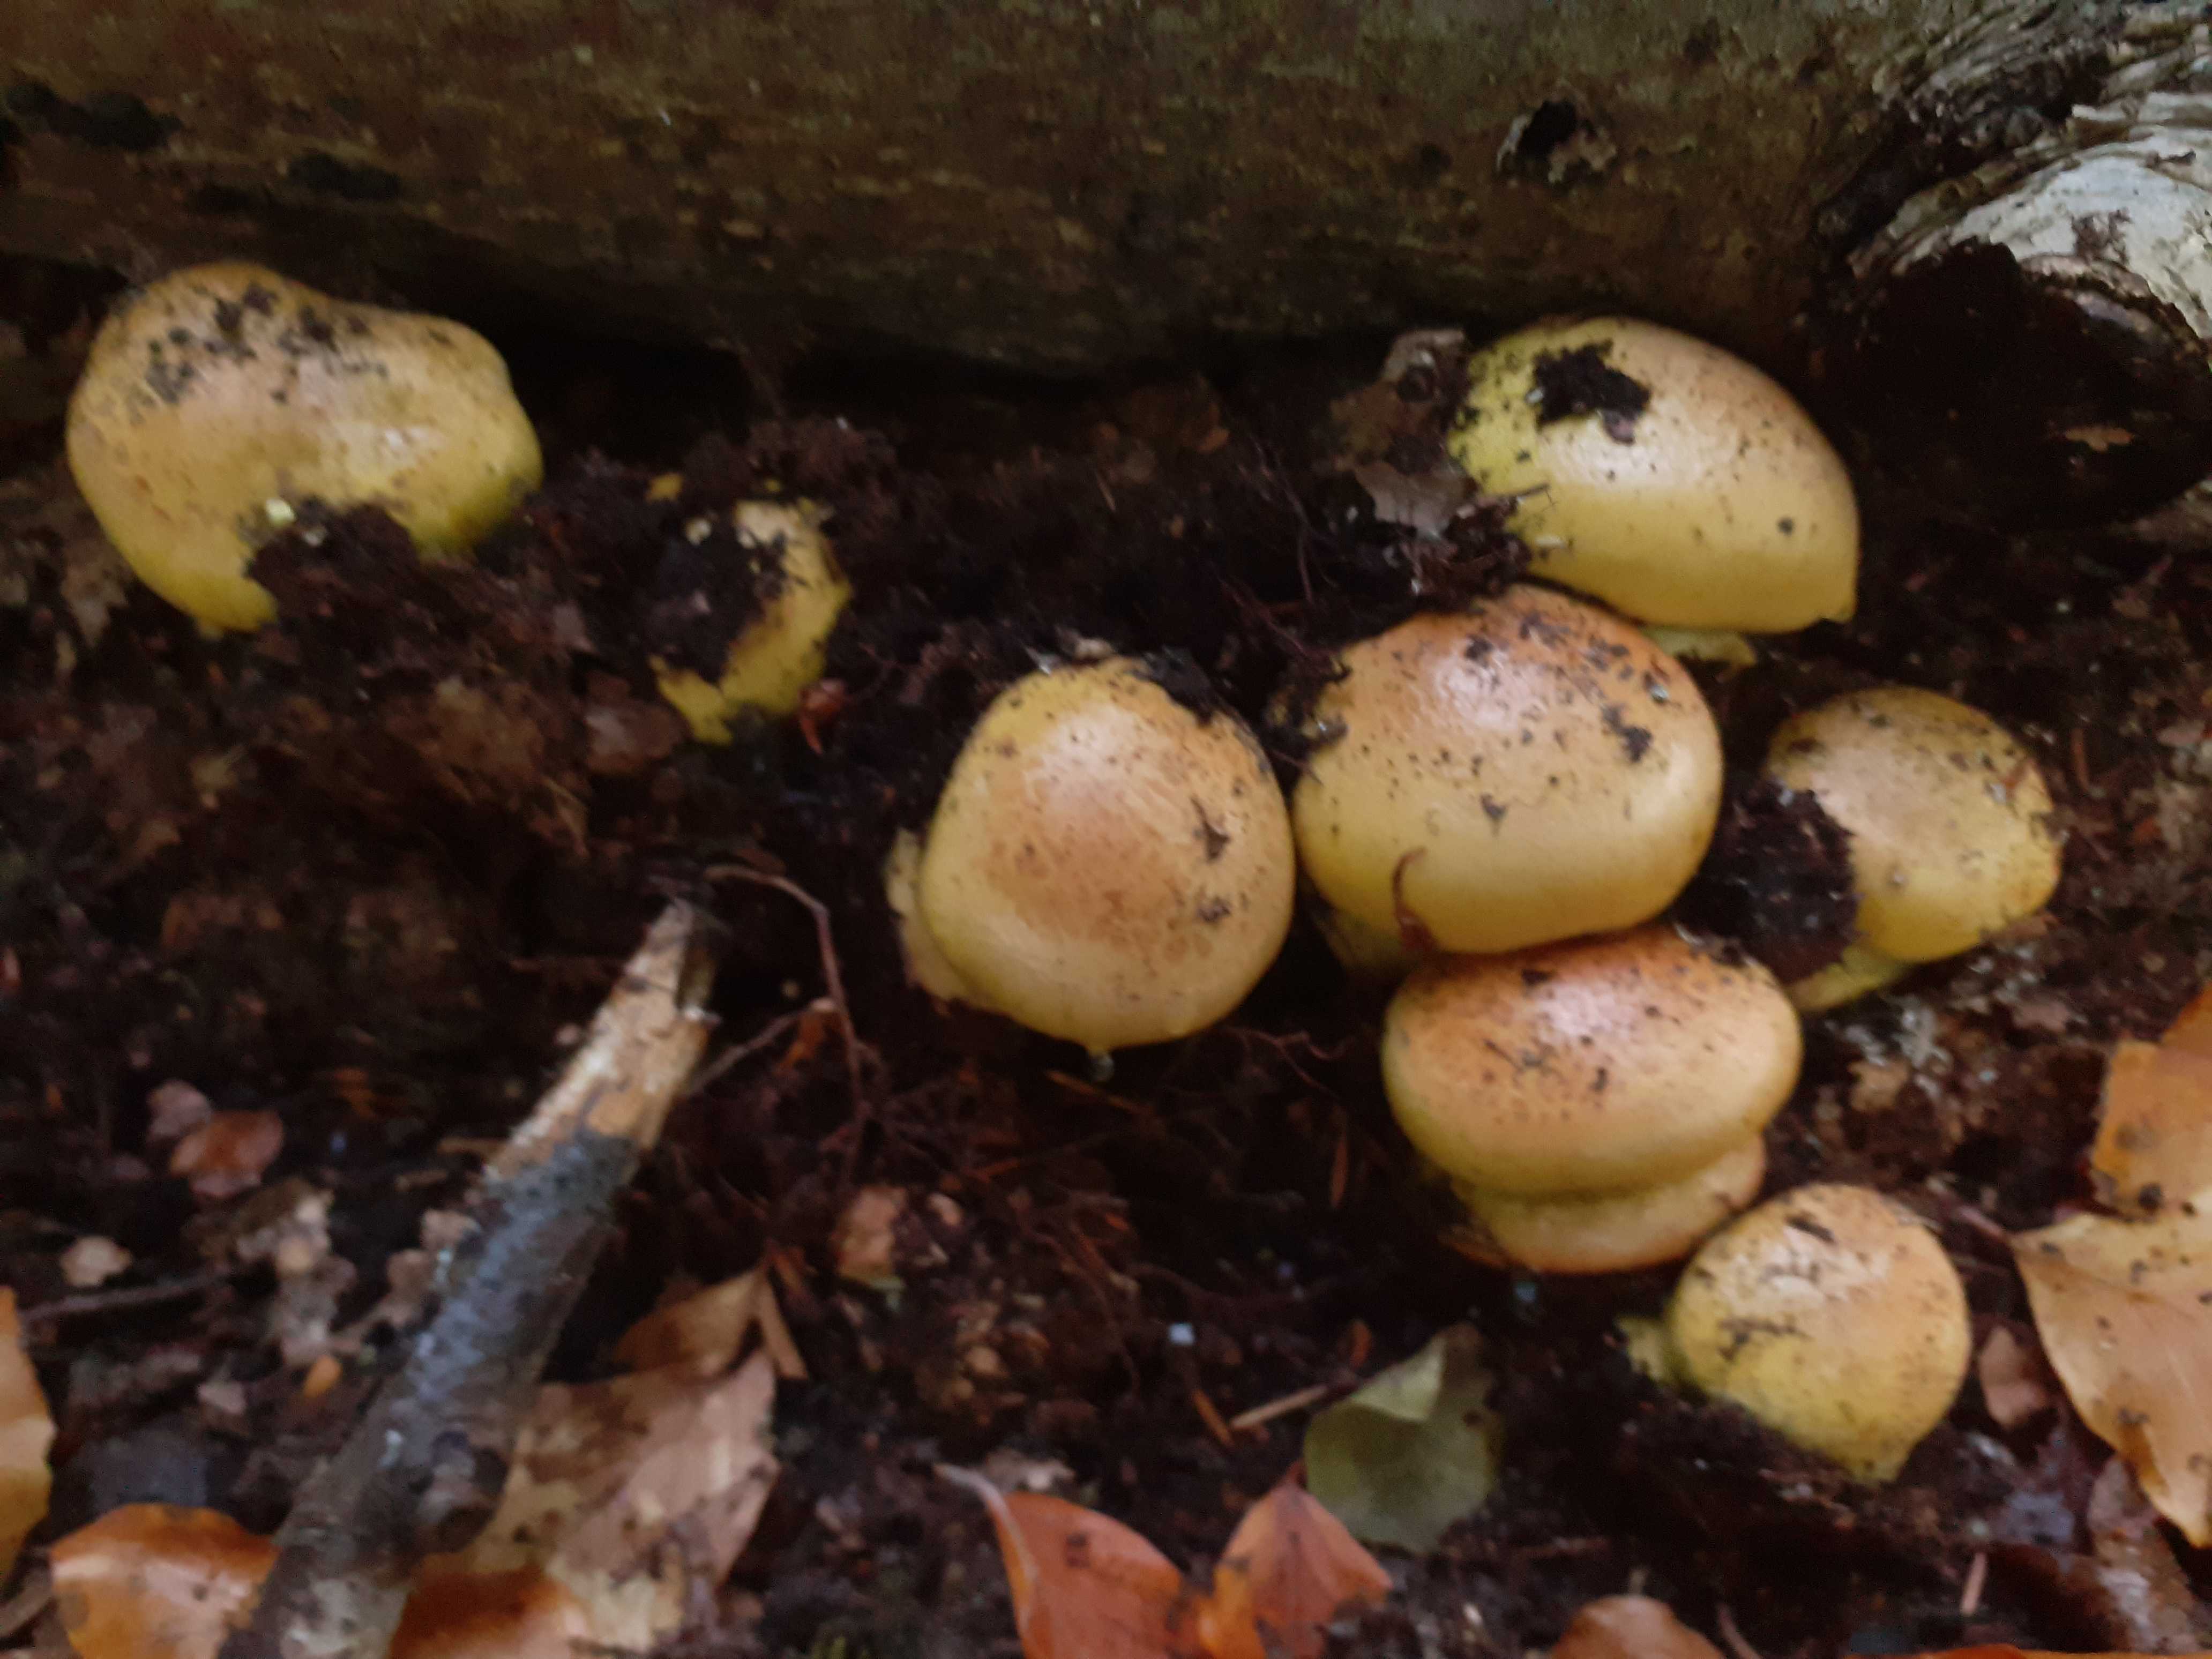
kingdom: Fungi
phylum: Basidiomycota
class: Agaricomycetes
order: Agaricales
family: Cortinariaceae
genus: Calonarius
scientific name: Calonarius elegantissimus
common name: orangegylden slørhat
